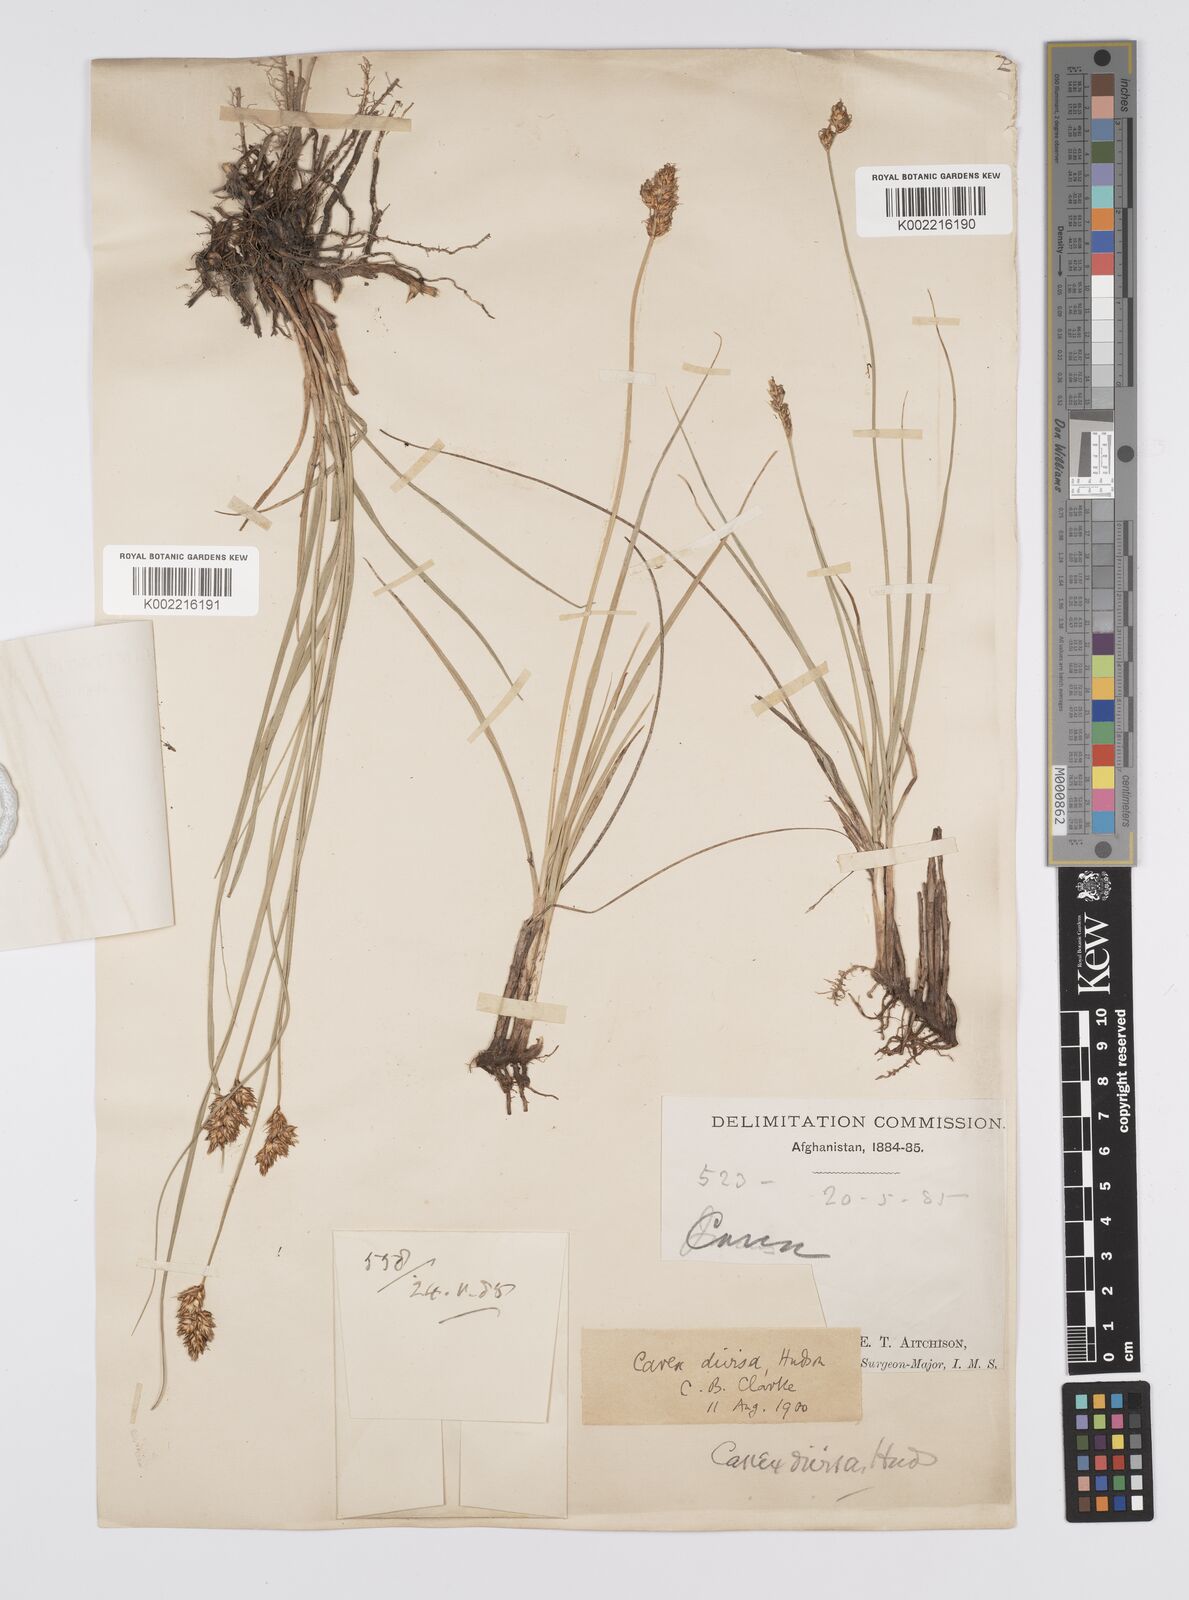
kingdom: Plantae
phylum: Tracheophyta
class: Liliopsida
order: Poales
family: Cyperaceae
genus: Carex
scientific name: Carex divisa
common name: Divided sedge
